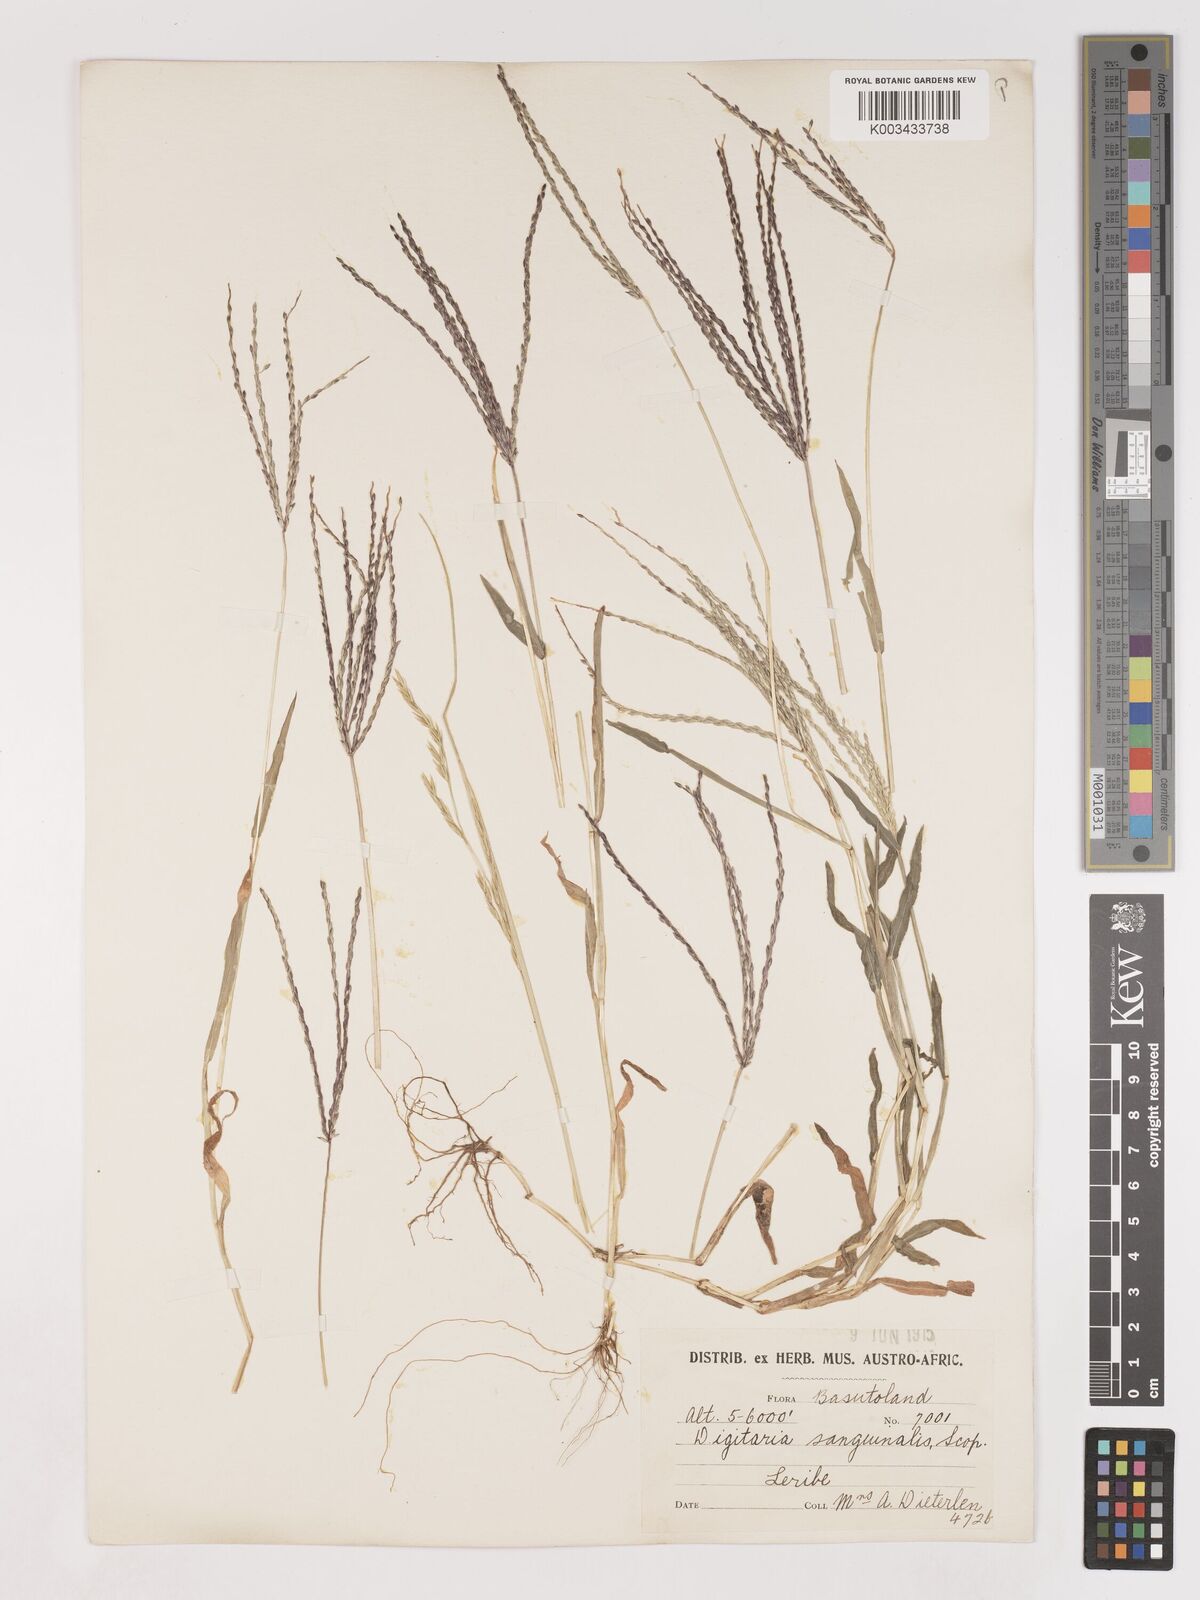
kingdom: Plantae
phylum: Tracheophyta
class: Liliopsida
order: Poales
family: Poaceae
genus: Digitaria
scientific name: Digitaria sanguinalis
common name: Hairy crabgrass
